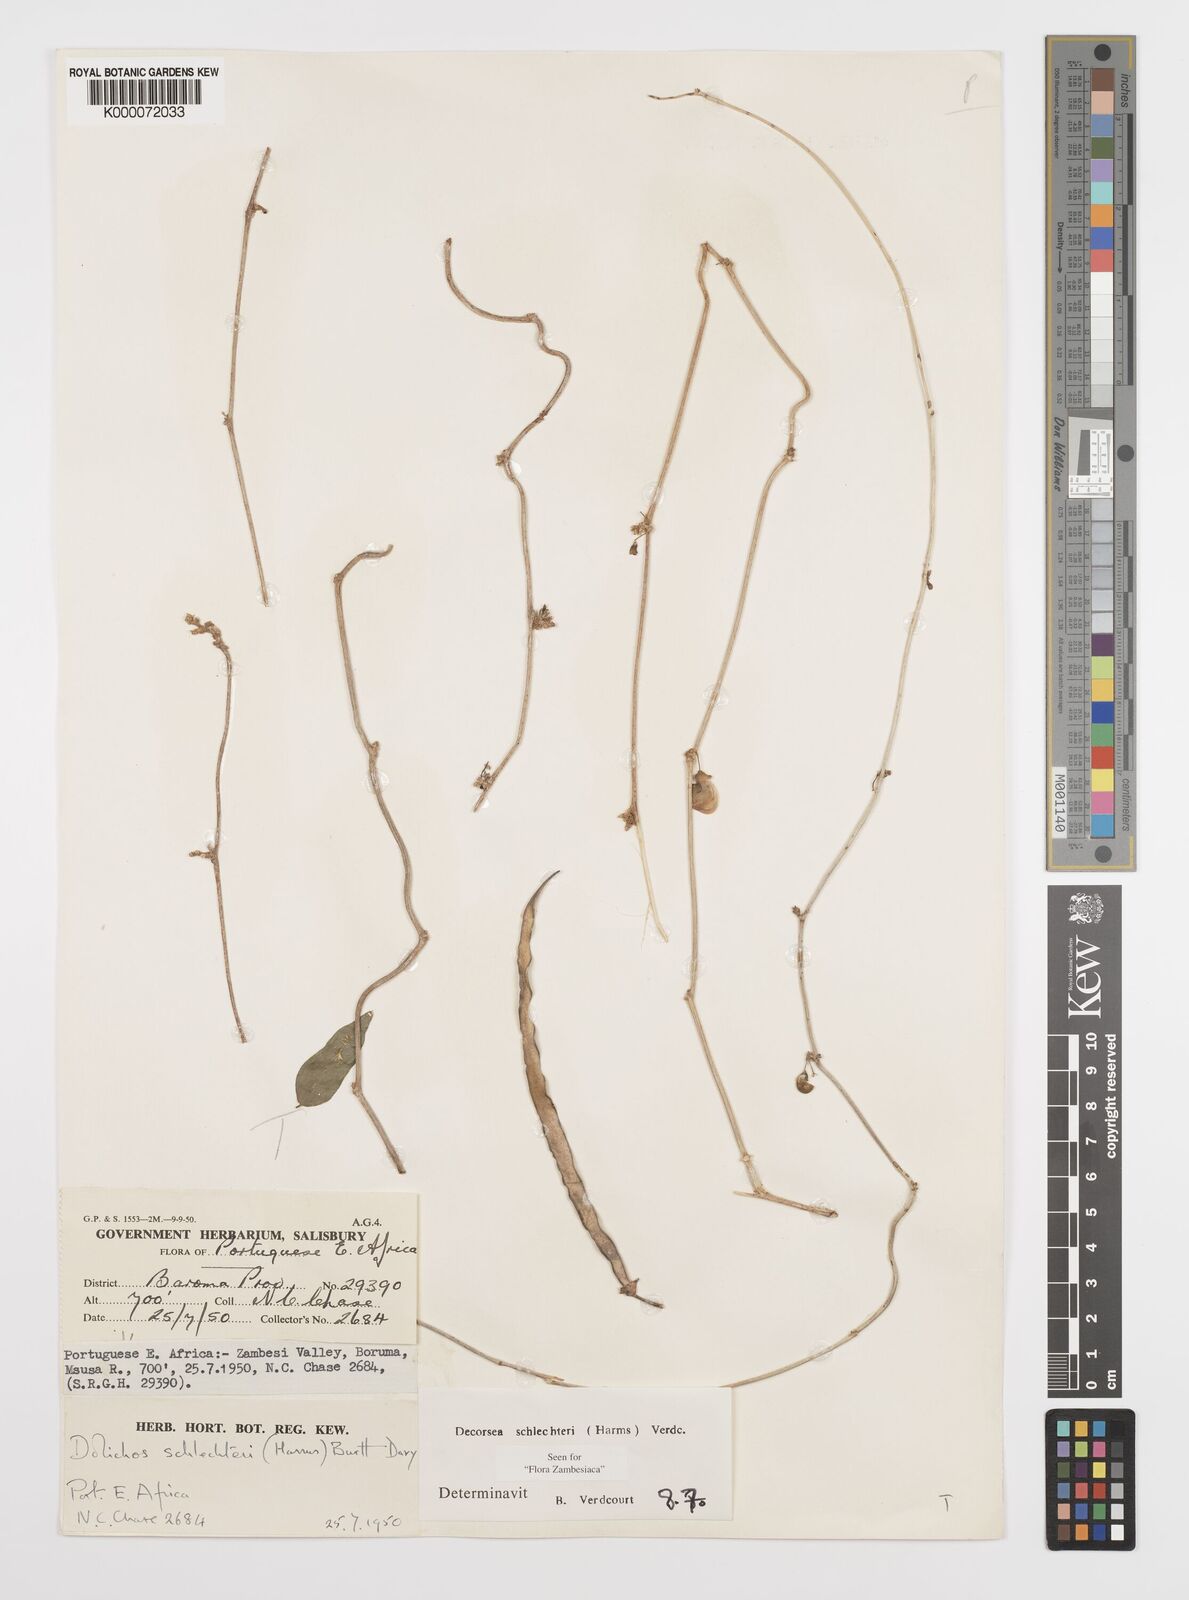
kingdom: Plantae
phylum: Tracheophyta
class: Magnoliopsida
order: Fabales
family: Fabaceae
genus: Decorsea
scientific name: Decorsea schlechteri
